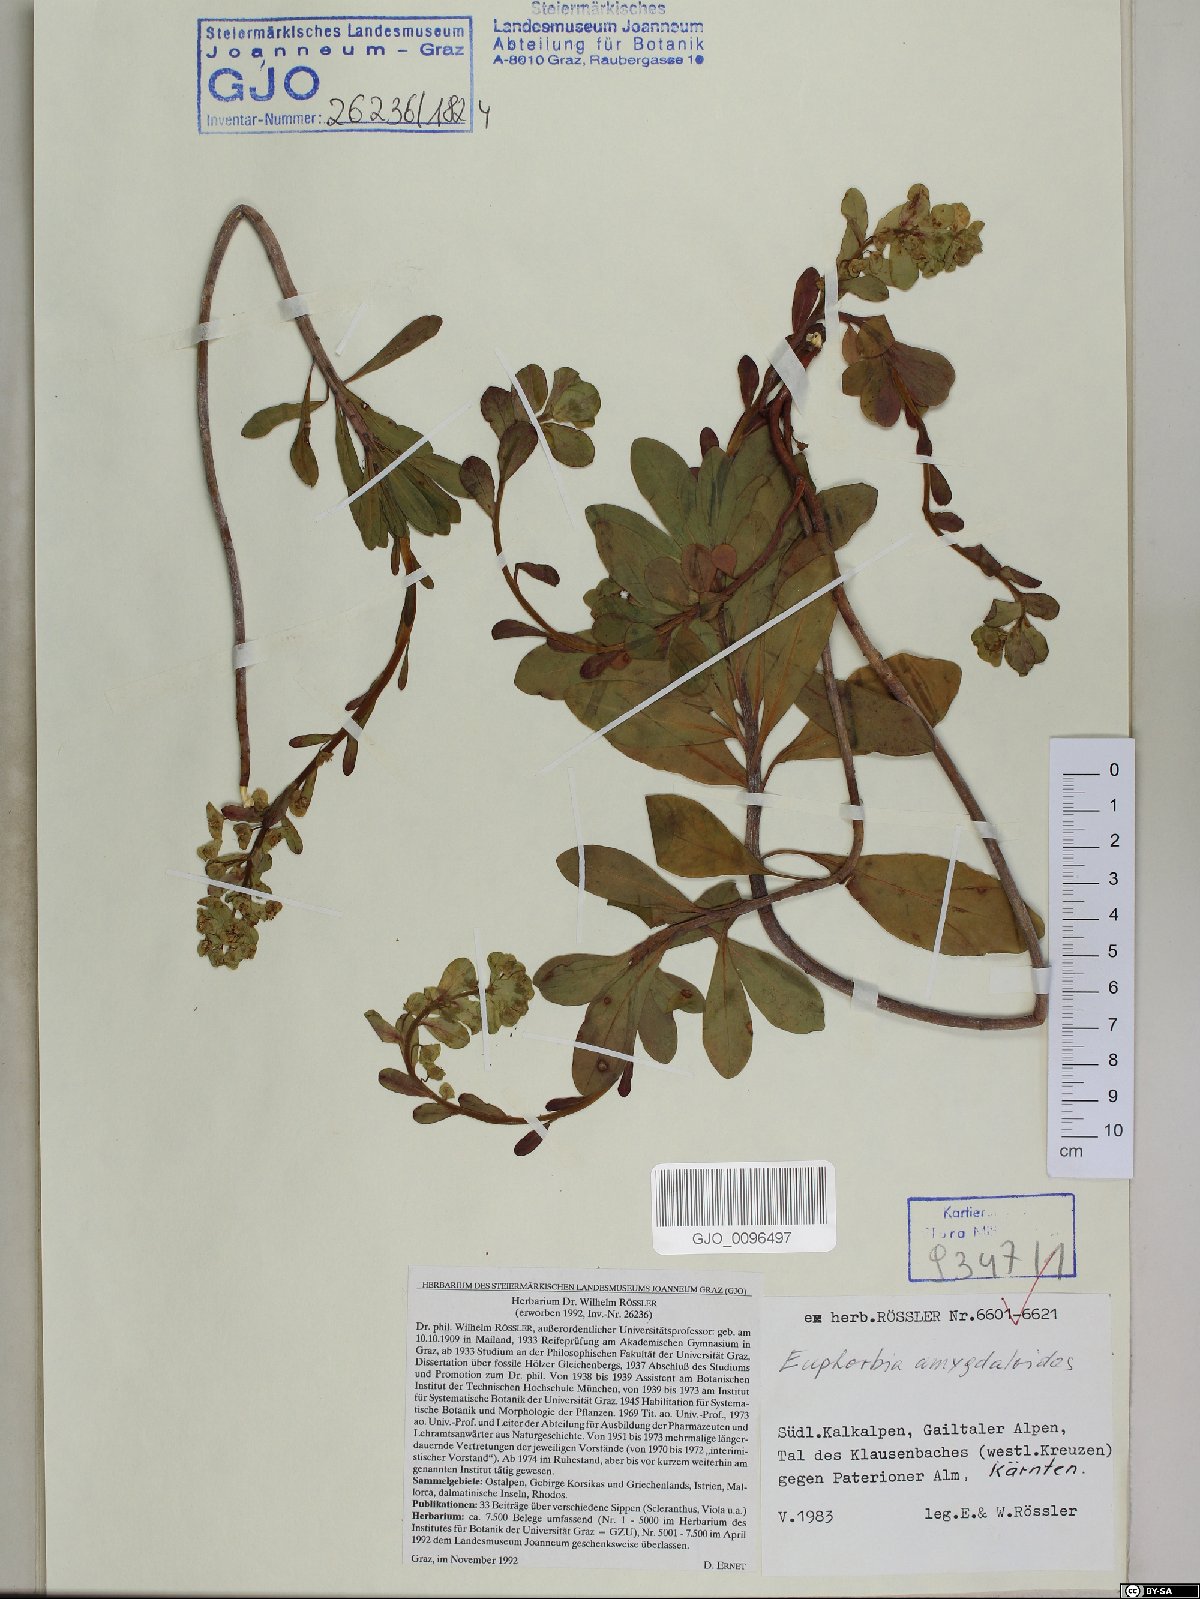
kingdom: Plantae
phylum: Tracheophyta
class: Magnoliopsida
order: Malpighiales
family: Euphorbiaceae
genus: Euphorbia
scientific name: Euphorbia amygdaloides
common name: Wood spurge
